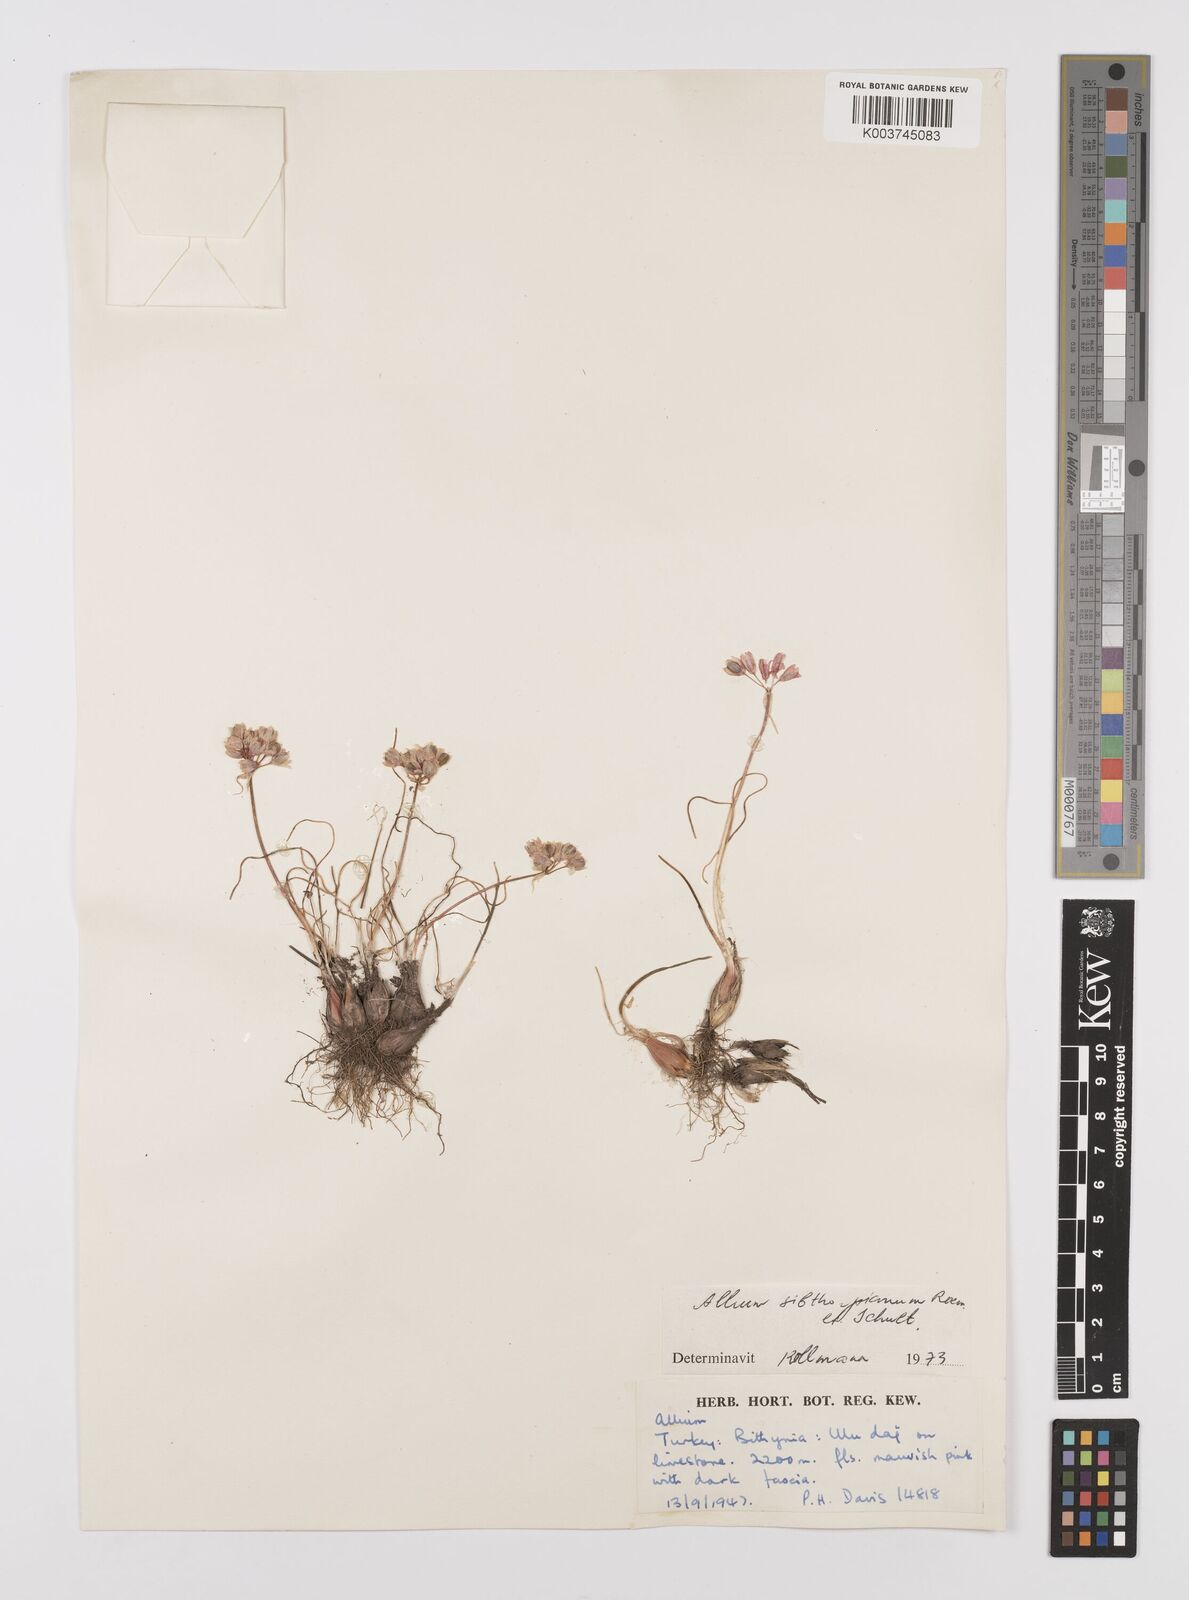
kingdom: Plantae
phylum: Tracheophyta
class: Liliopsida
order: Asparagales
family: Amaryllidaceae
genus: Allium
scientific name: Allium sibthorpianum
